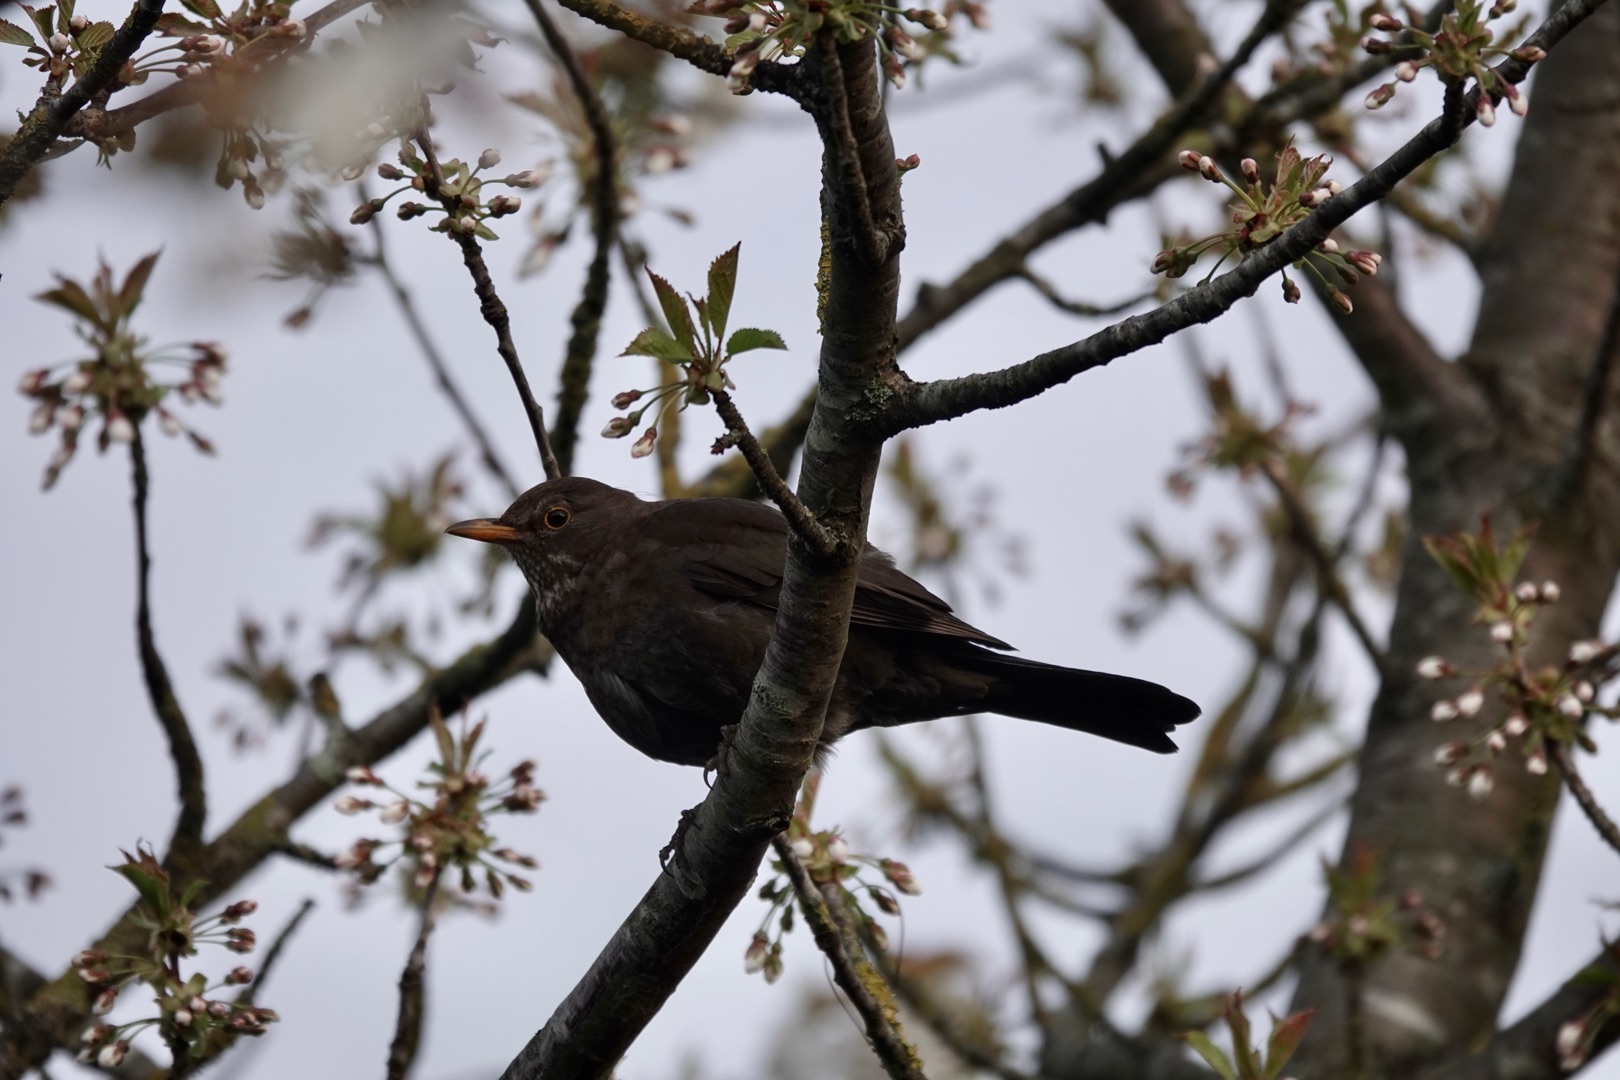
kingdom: Animalia
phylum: Chordata
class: Aves
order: Passeriformes
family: Turdidae
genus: Turdus
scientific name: Turdus merula
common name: Solsort
